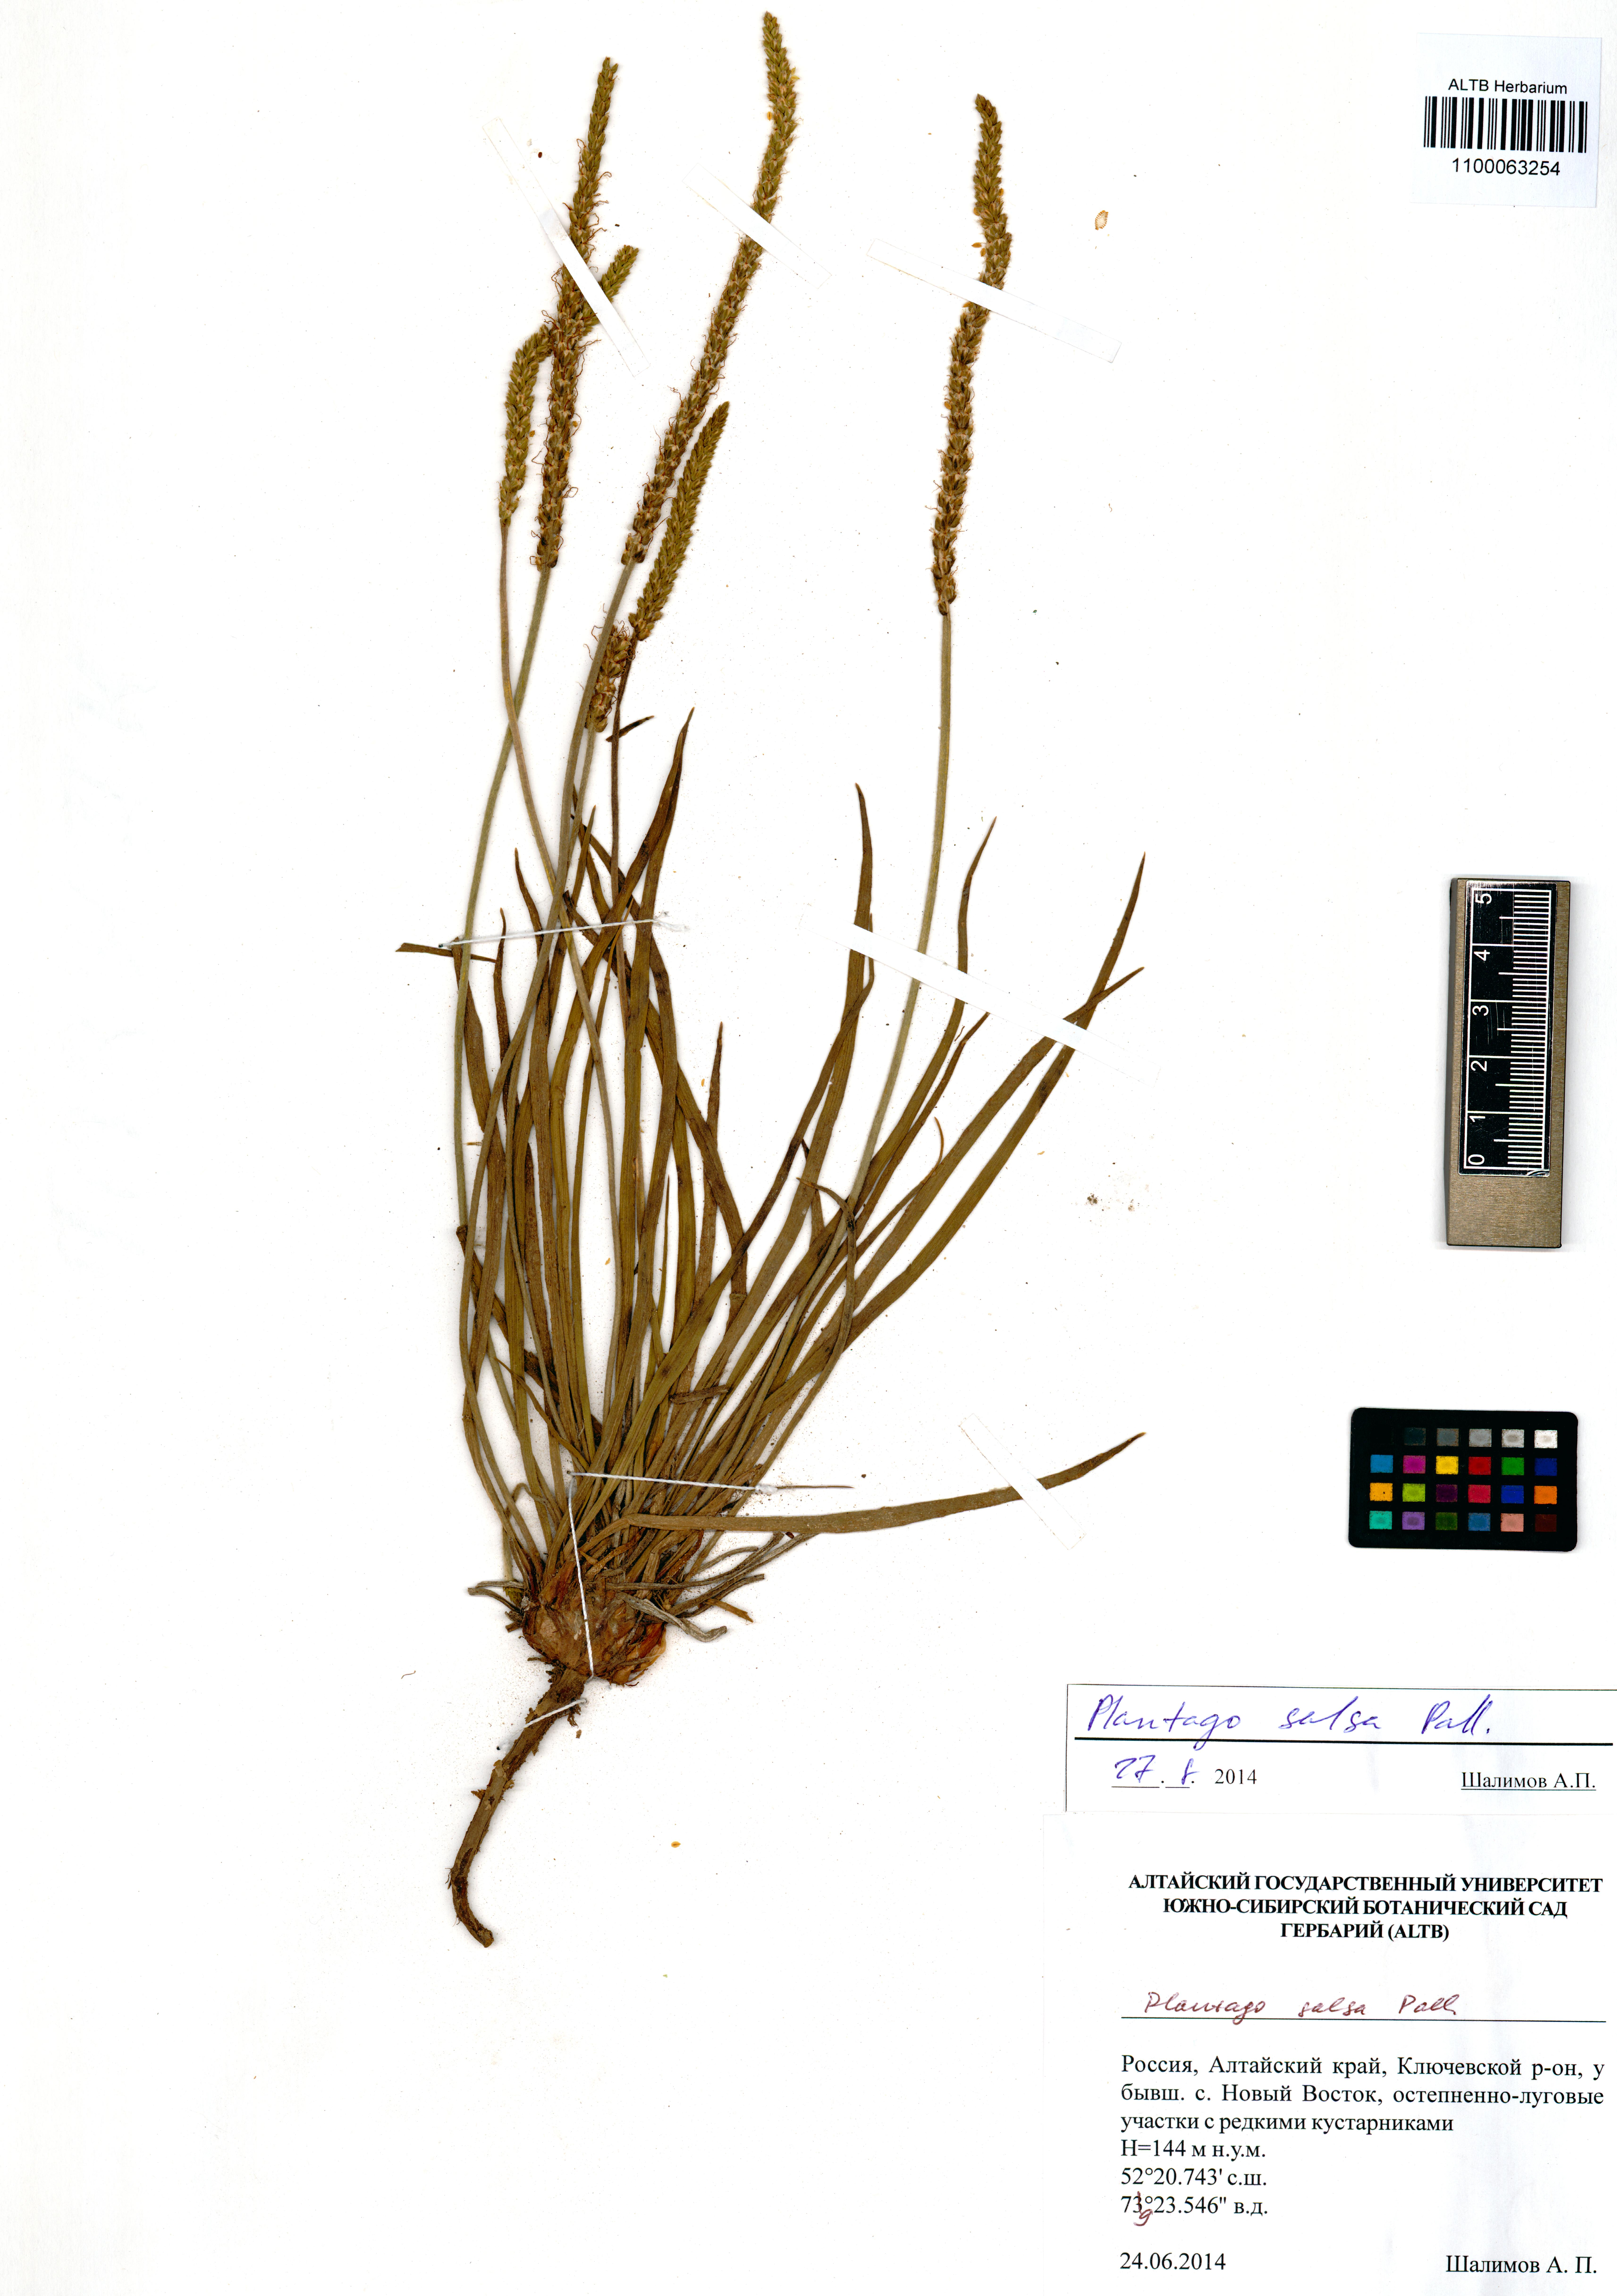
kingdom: Plantae
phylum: Tracheophyta
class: Magnoliopsida
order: Lamiales
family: Plantaginaceae
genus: Plantago
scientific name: Plantago salsa
